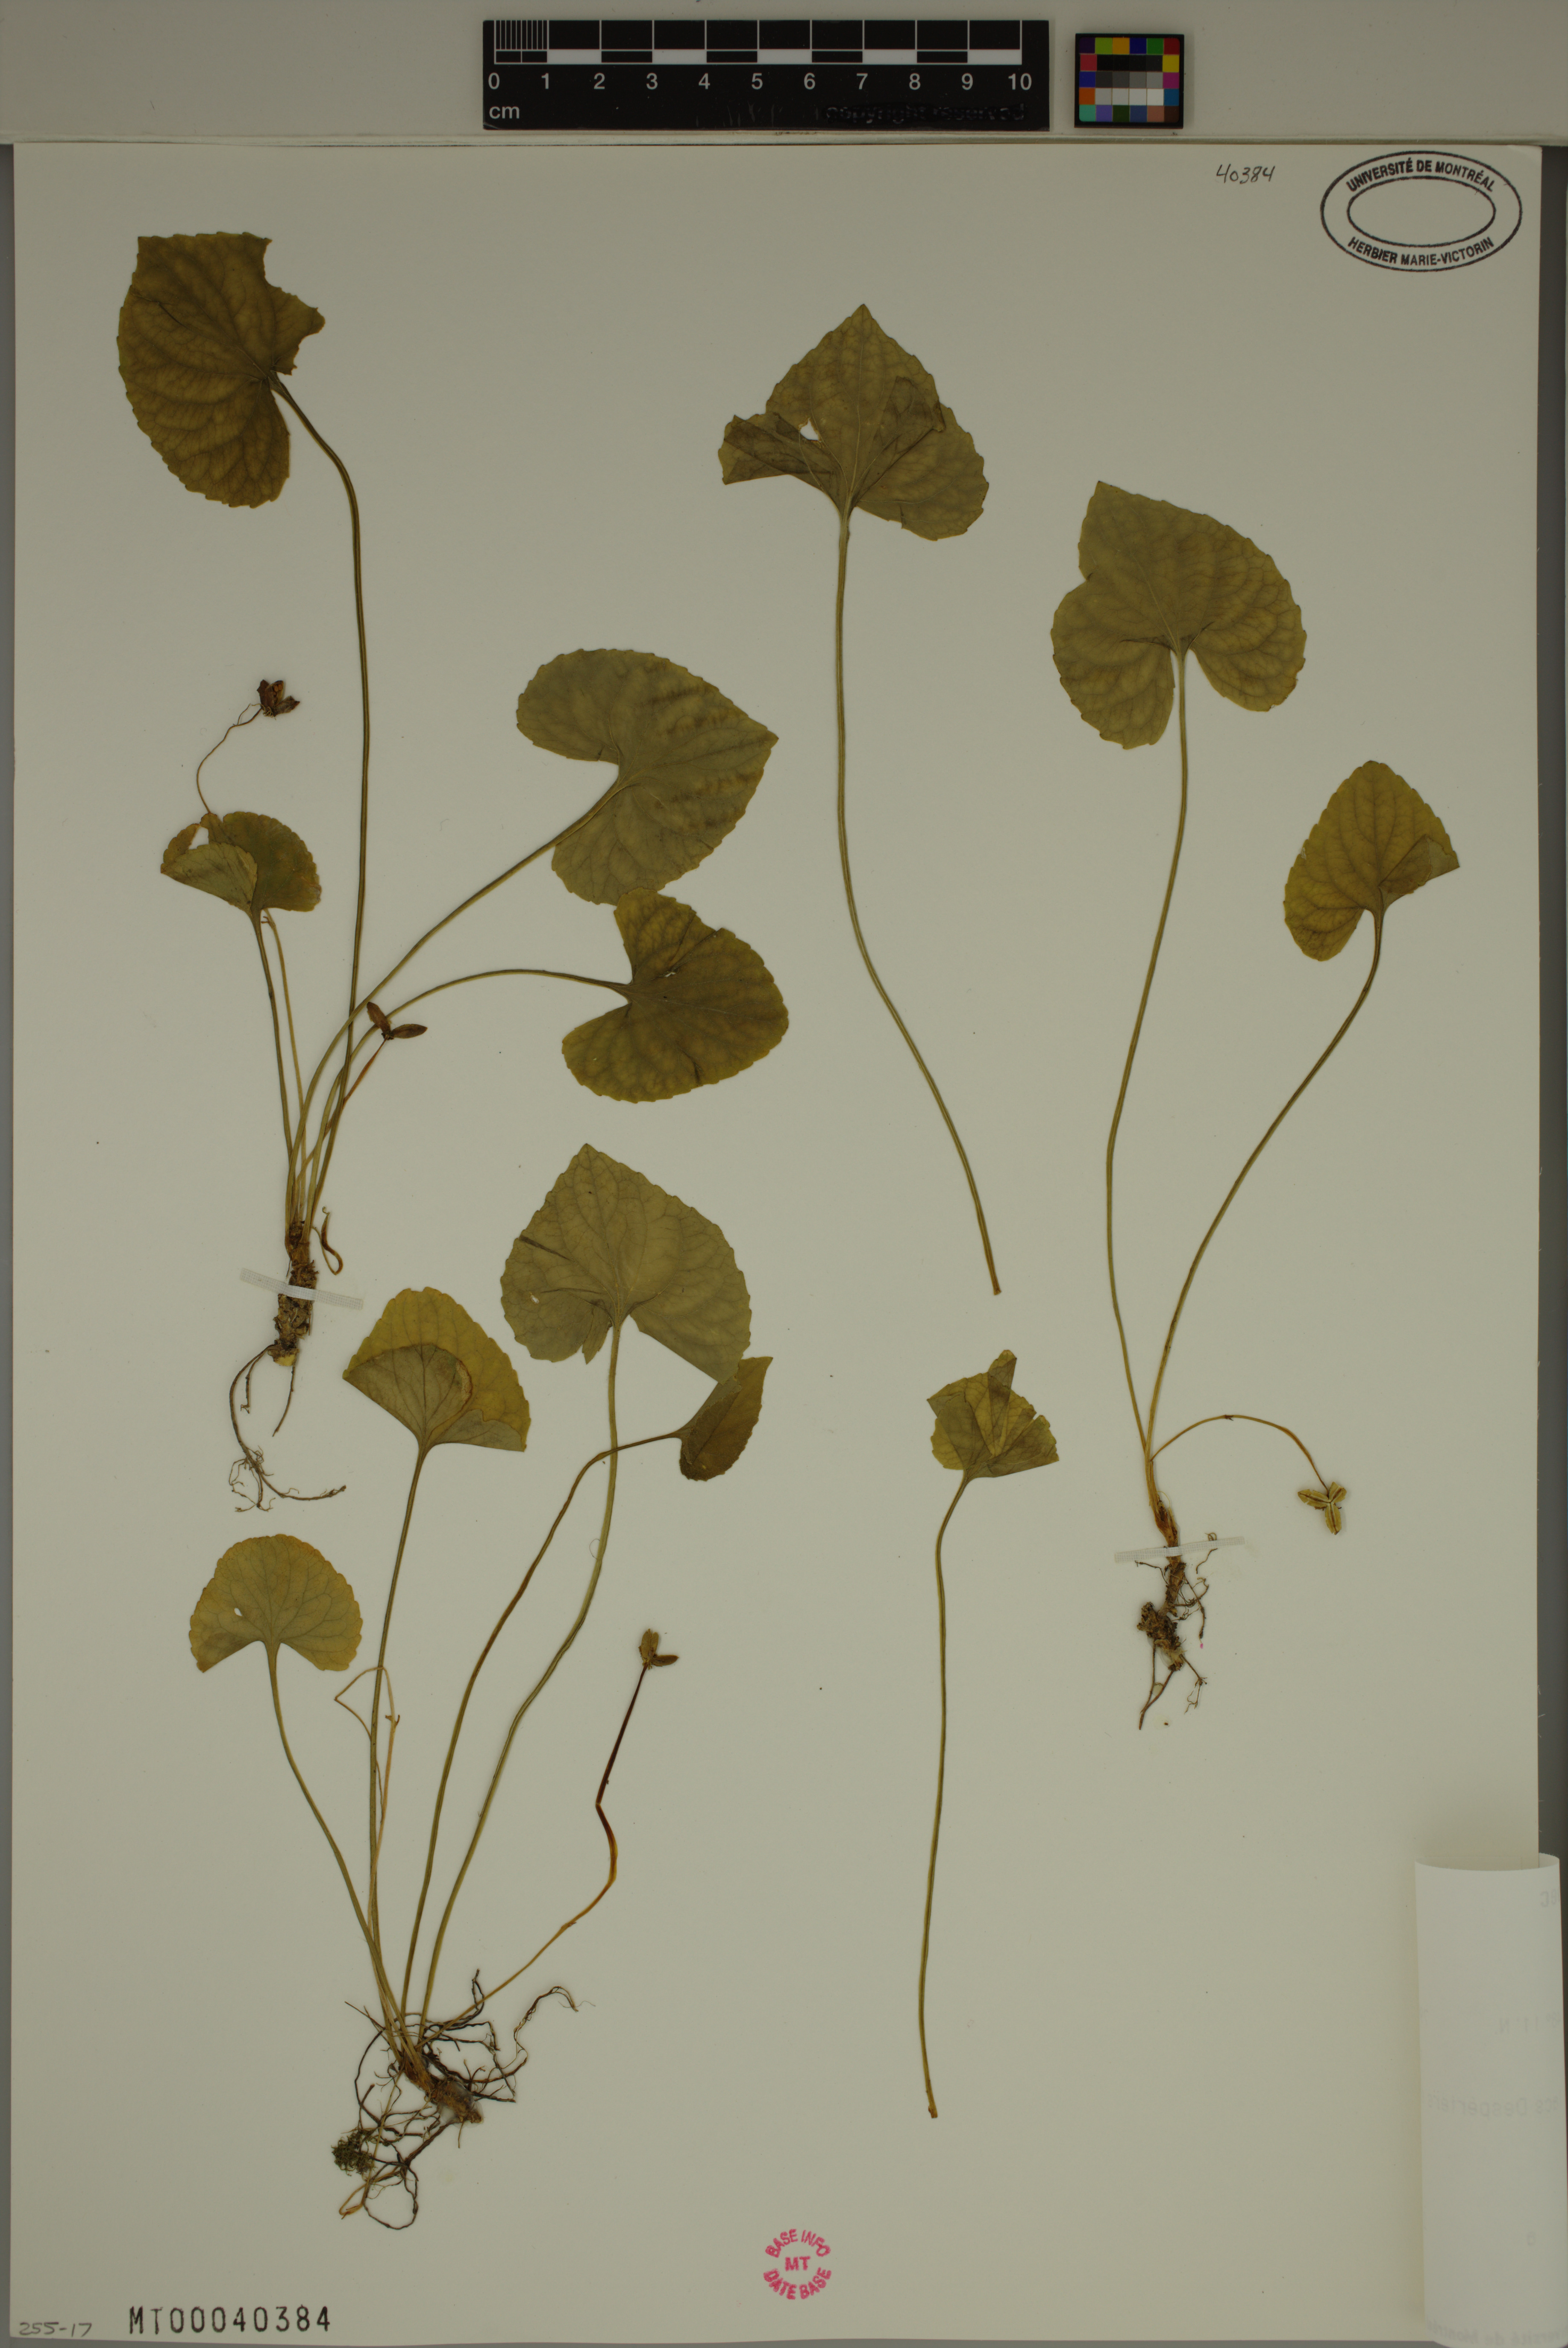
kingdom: Plantae
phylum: Tracheophyta
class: Magnoliopsida
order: Malpighiales
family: Violaceae
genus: Viola
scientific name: Viola sororia
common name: Dooryard violet
